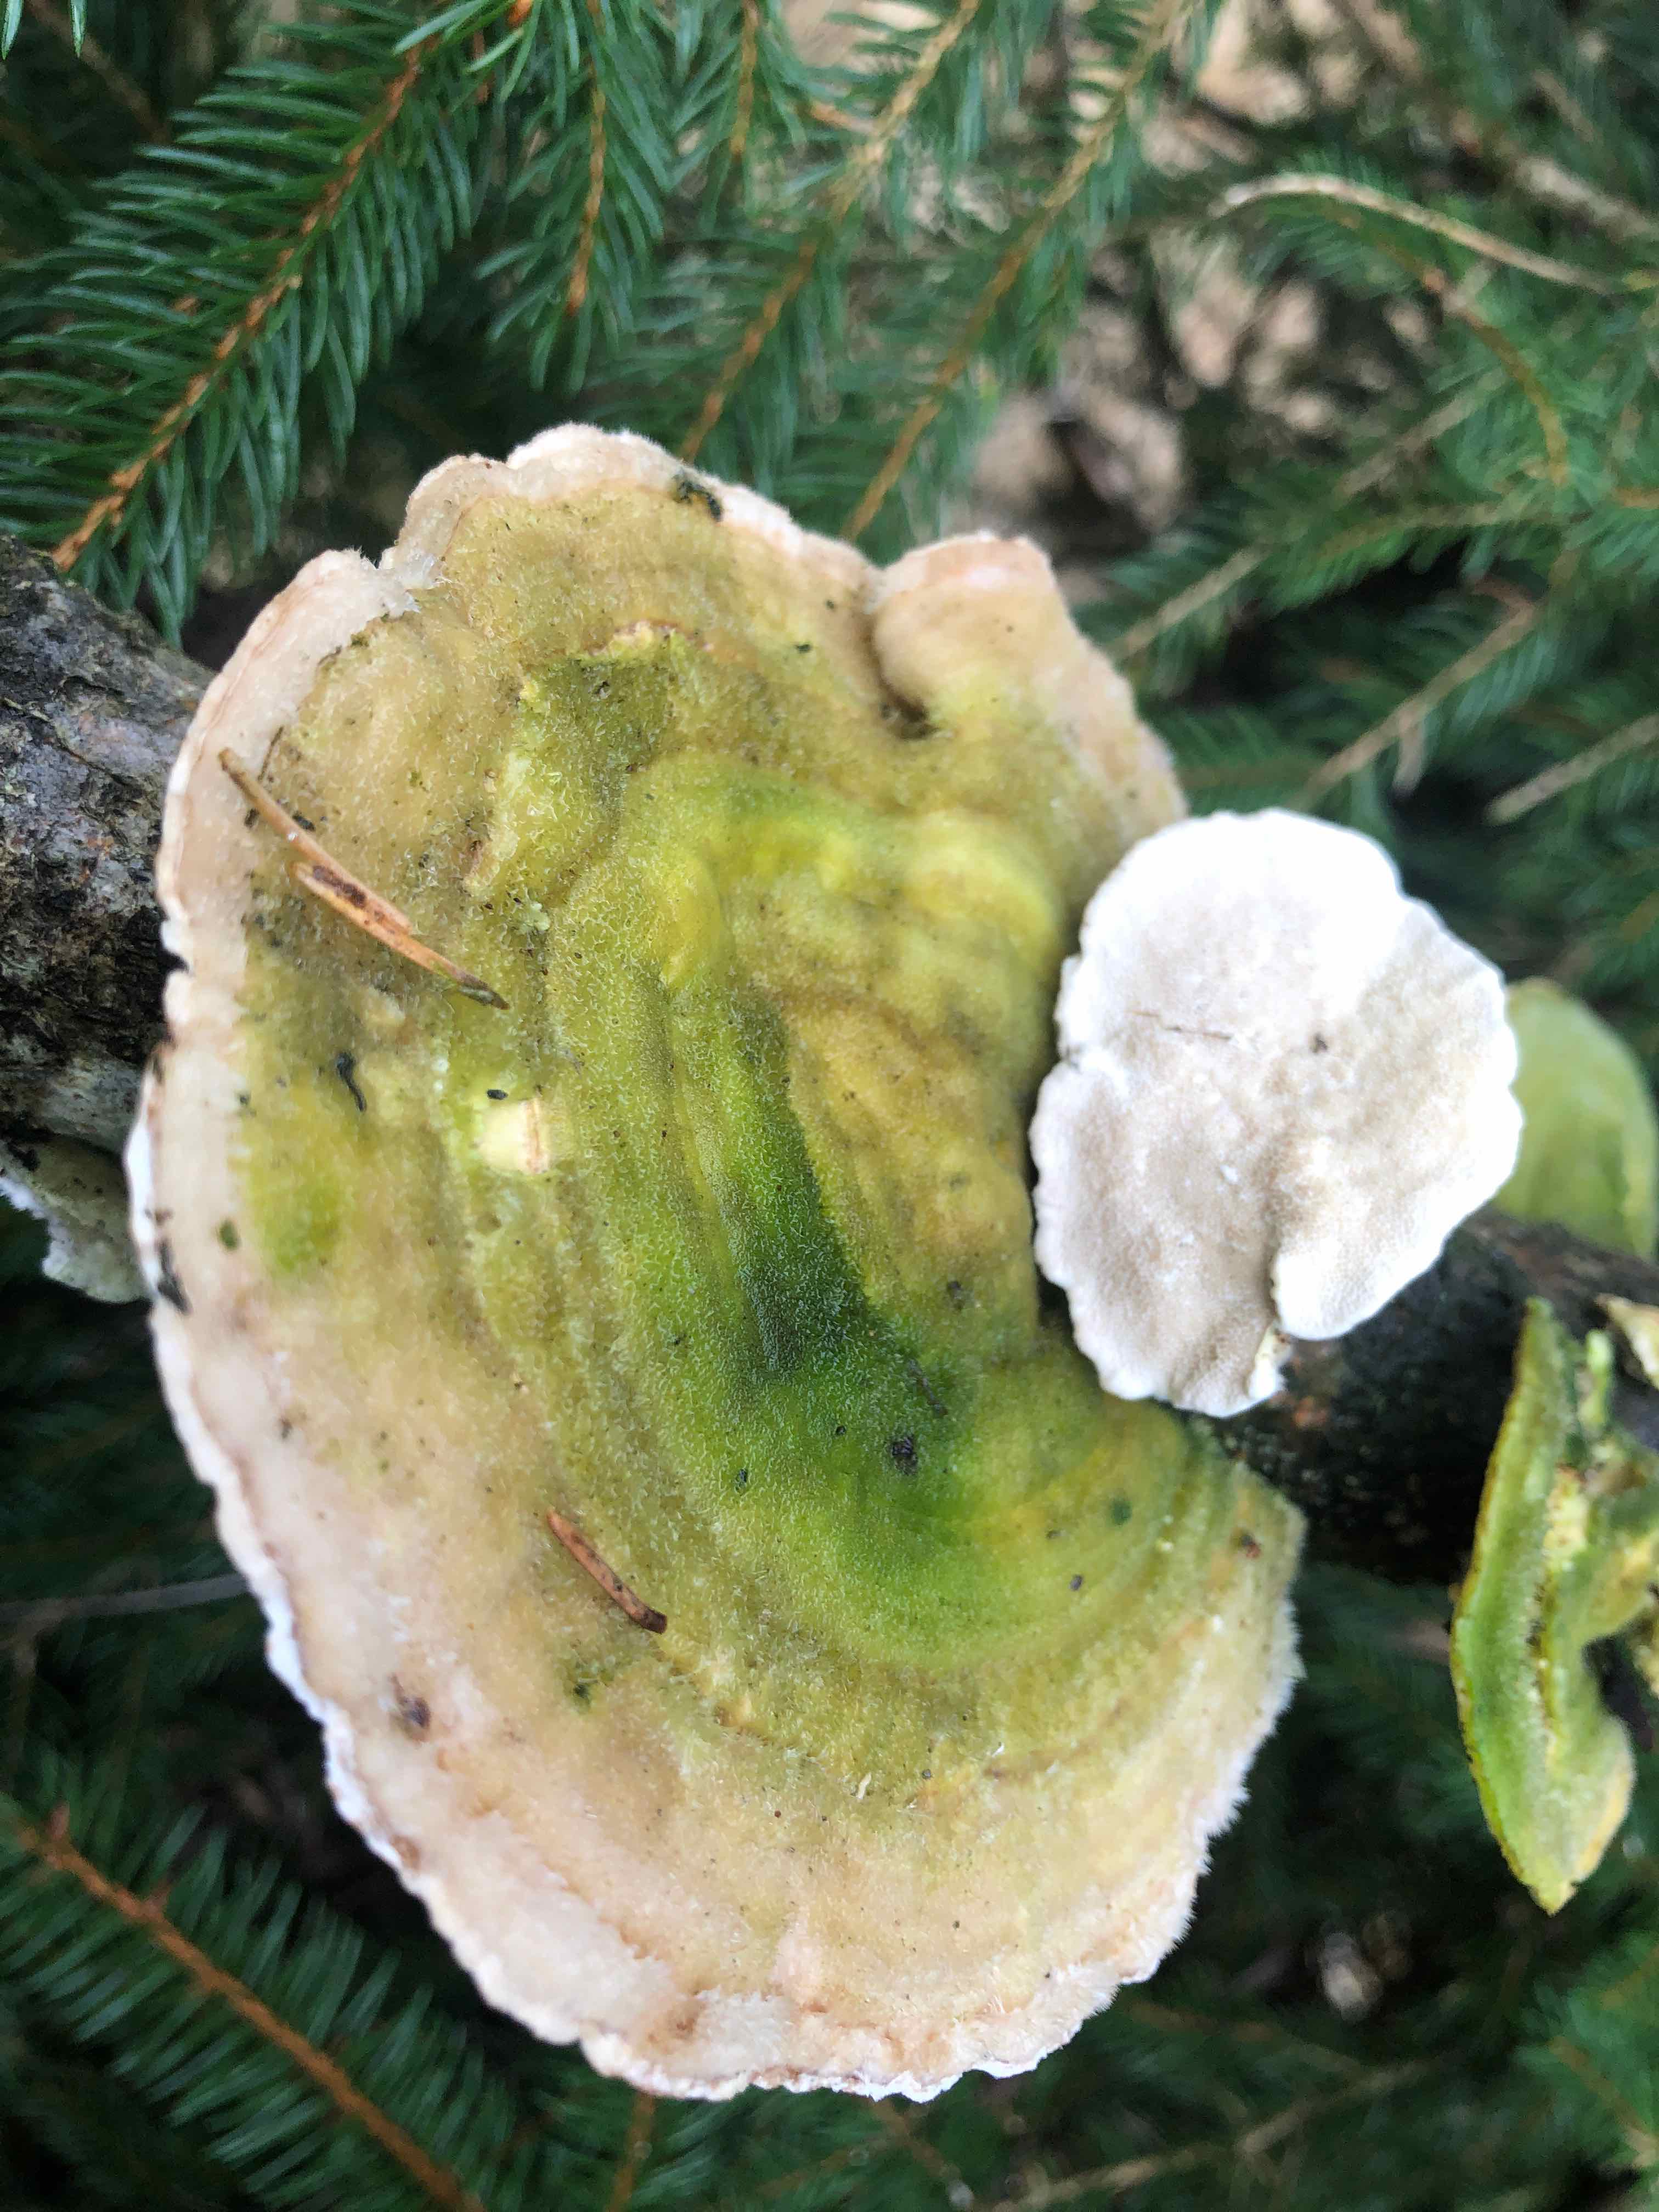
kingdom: Fungi
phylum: Basidiomycota
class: Agaricomycetes
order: Polyporales
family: Polyporaceae
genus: Trametes
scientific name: Trametes hirsuta
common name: håret læderporesvamp
